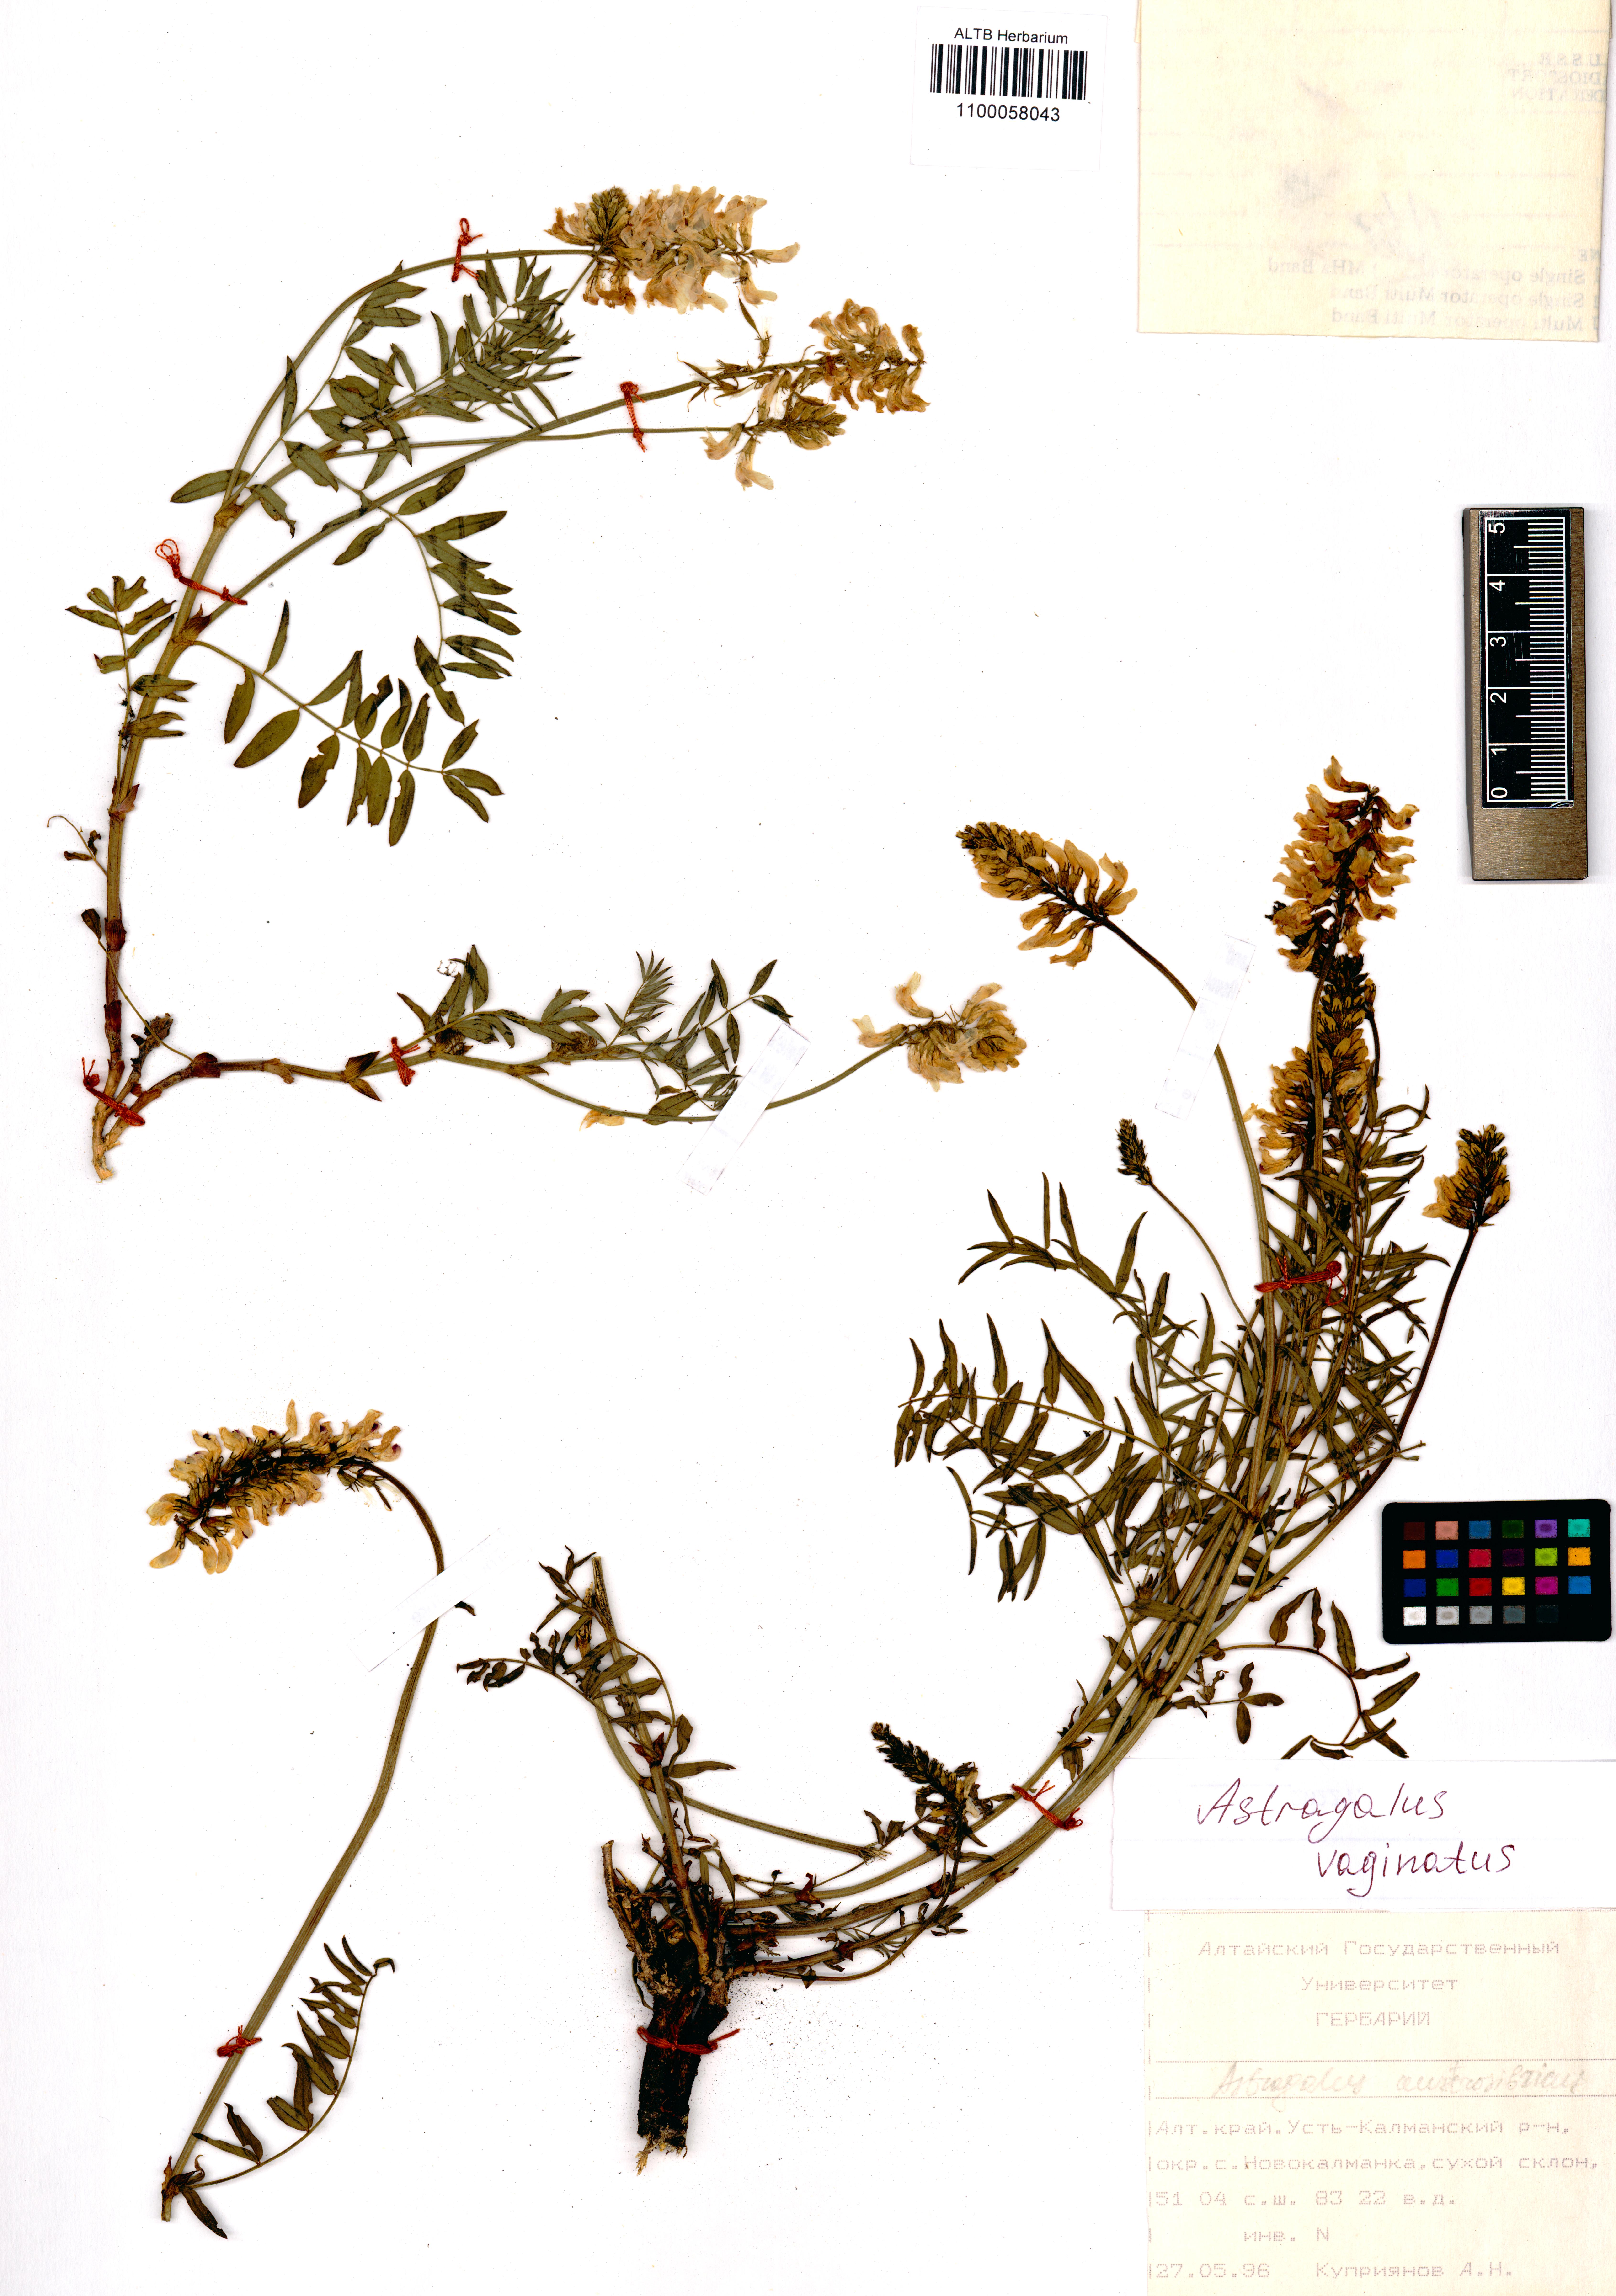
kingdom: Plantae
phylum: Tracheophyta
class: Magnoliopsida
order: Fabales
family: Fabaceae
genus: Astragalus
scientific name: Astragalus vaginatus
